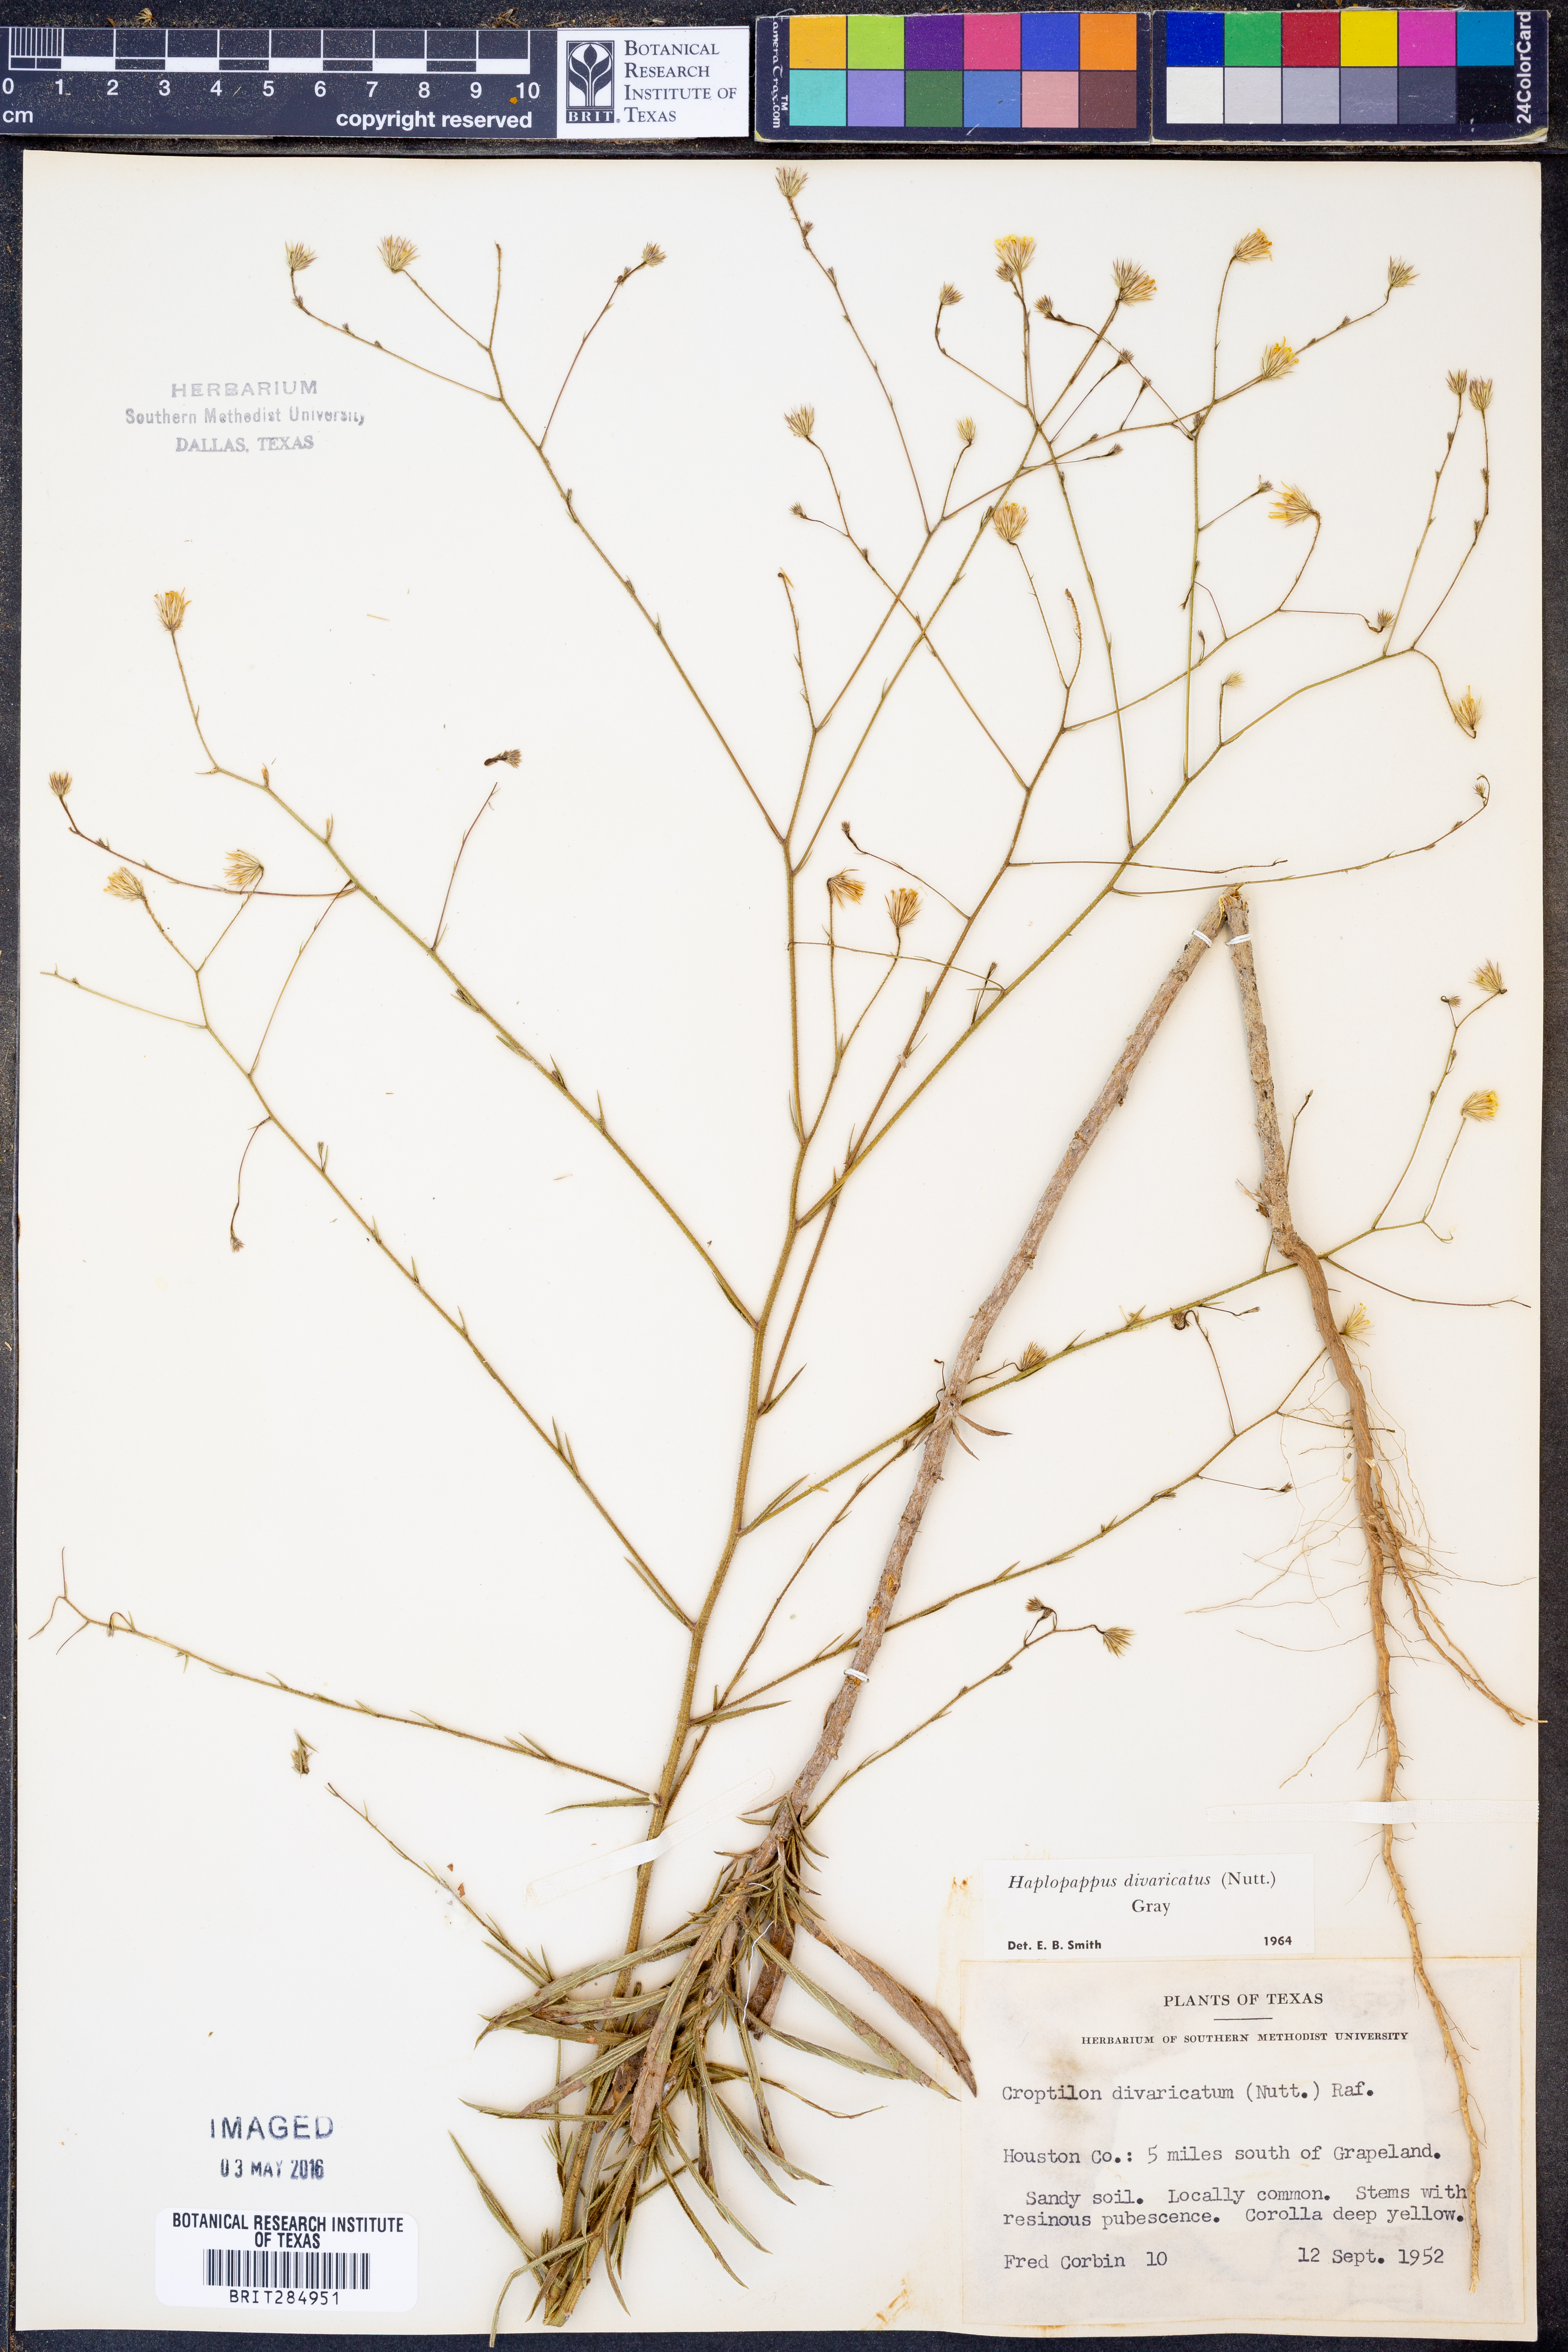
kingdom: Plantae
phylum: Tracheophyta
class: Magnoliopsida
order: Asterales
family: Asteraceae
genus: Croptilon
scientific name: Croptilon divaricatum
